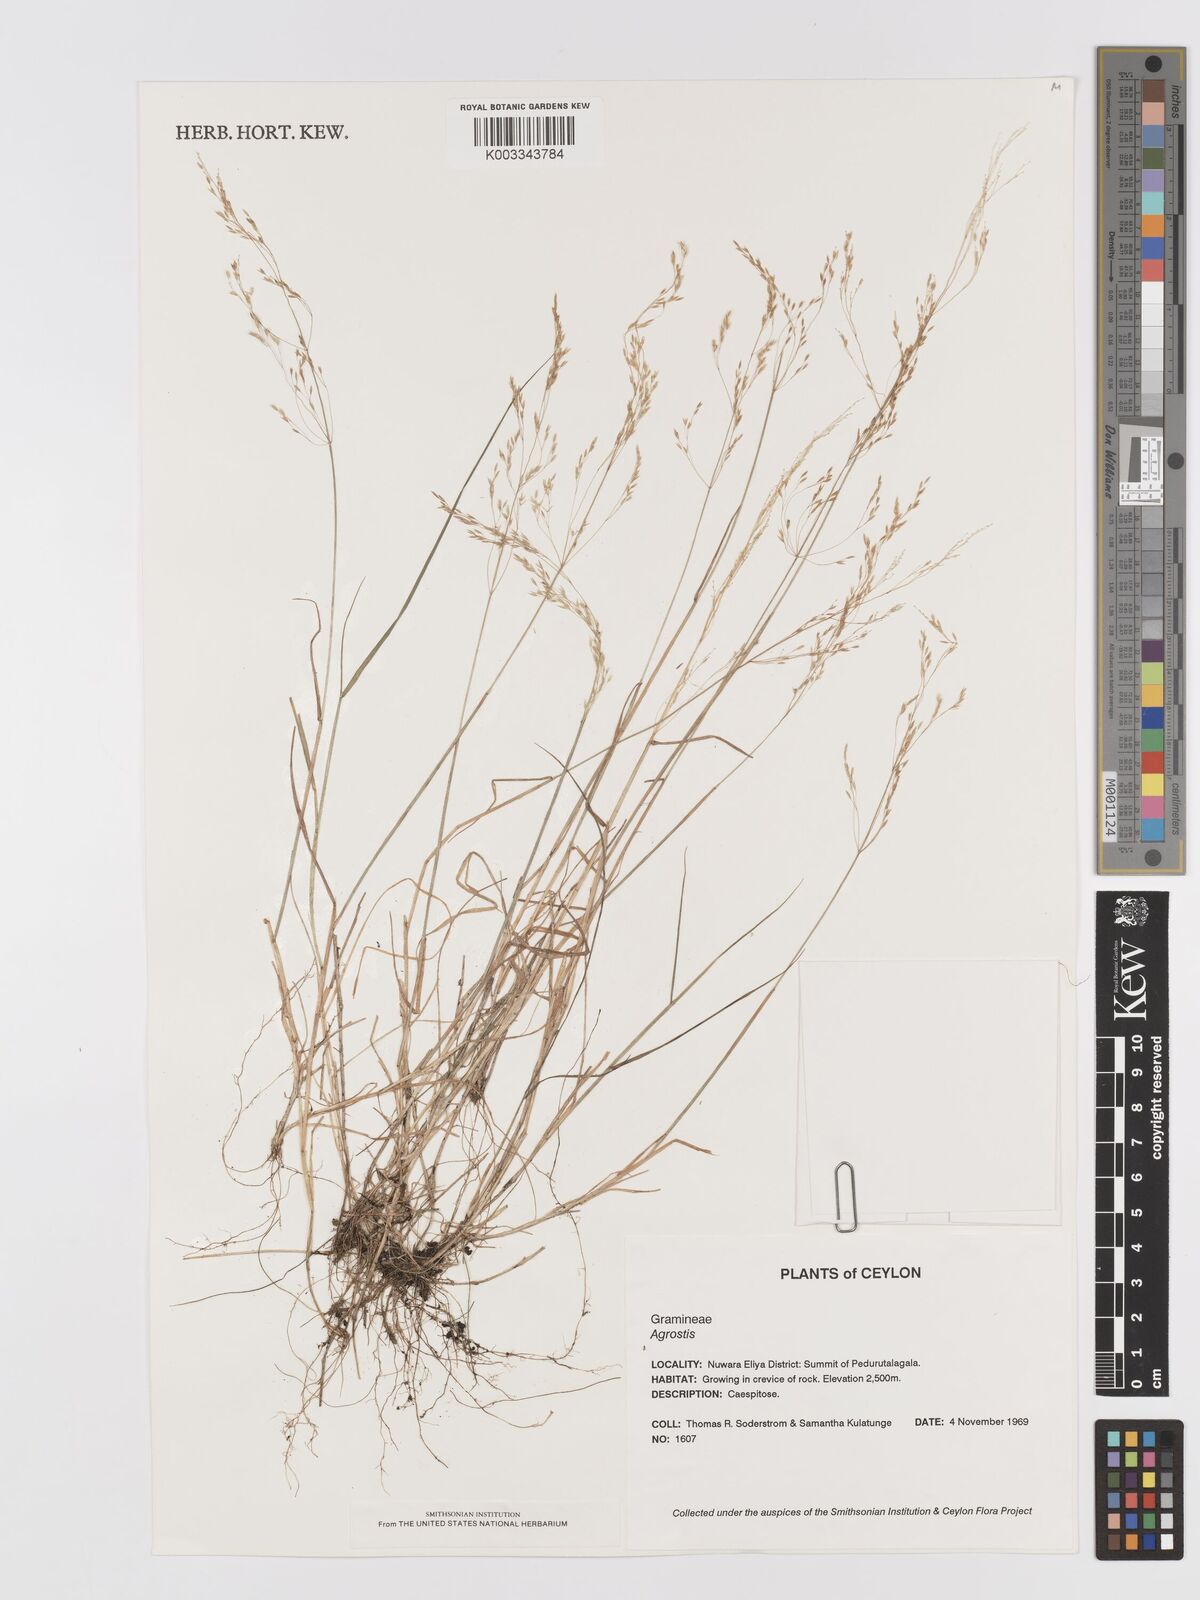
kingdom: Plantae
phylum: Tracheophyta
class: Liliopsida
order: Poales
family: Poaceae
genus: Agrostis
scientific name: Agrostis pilosula
